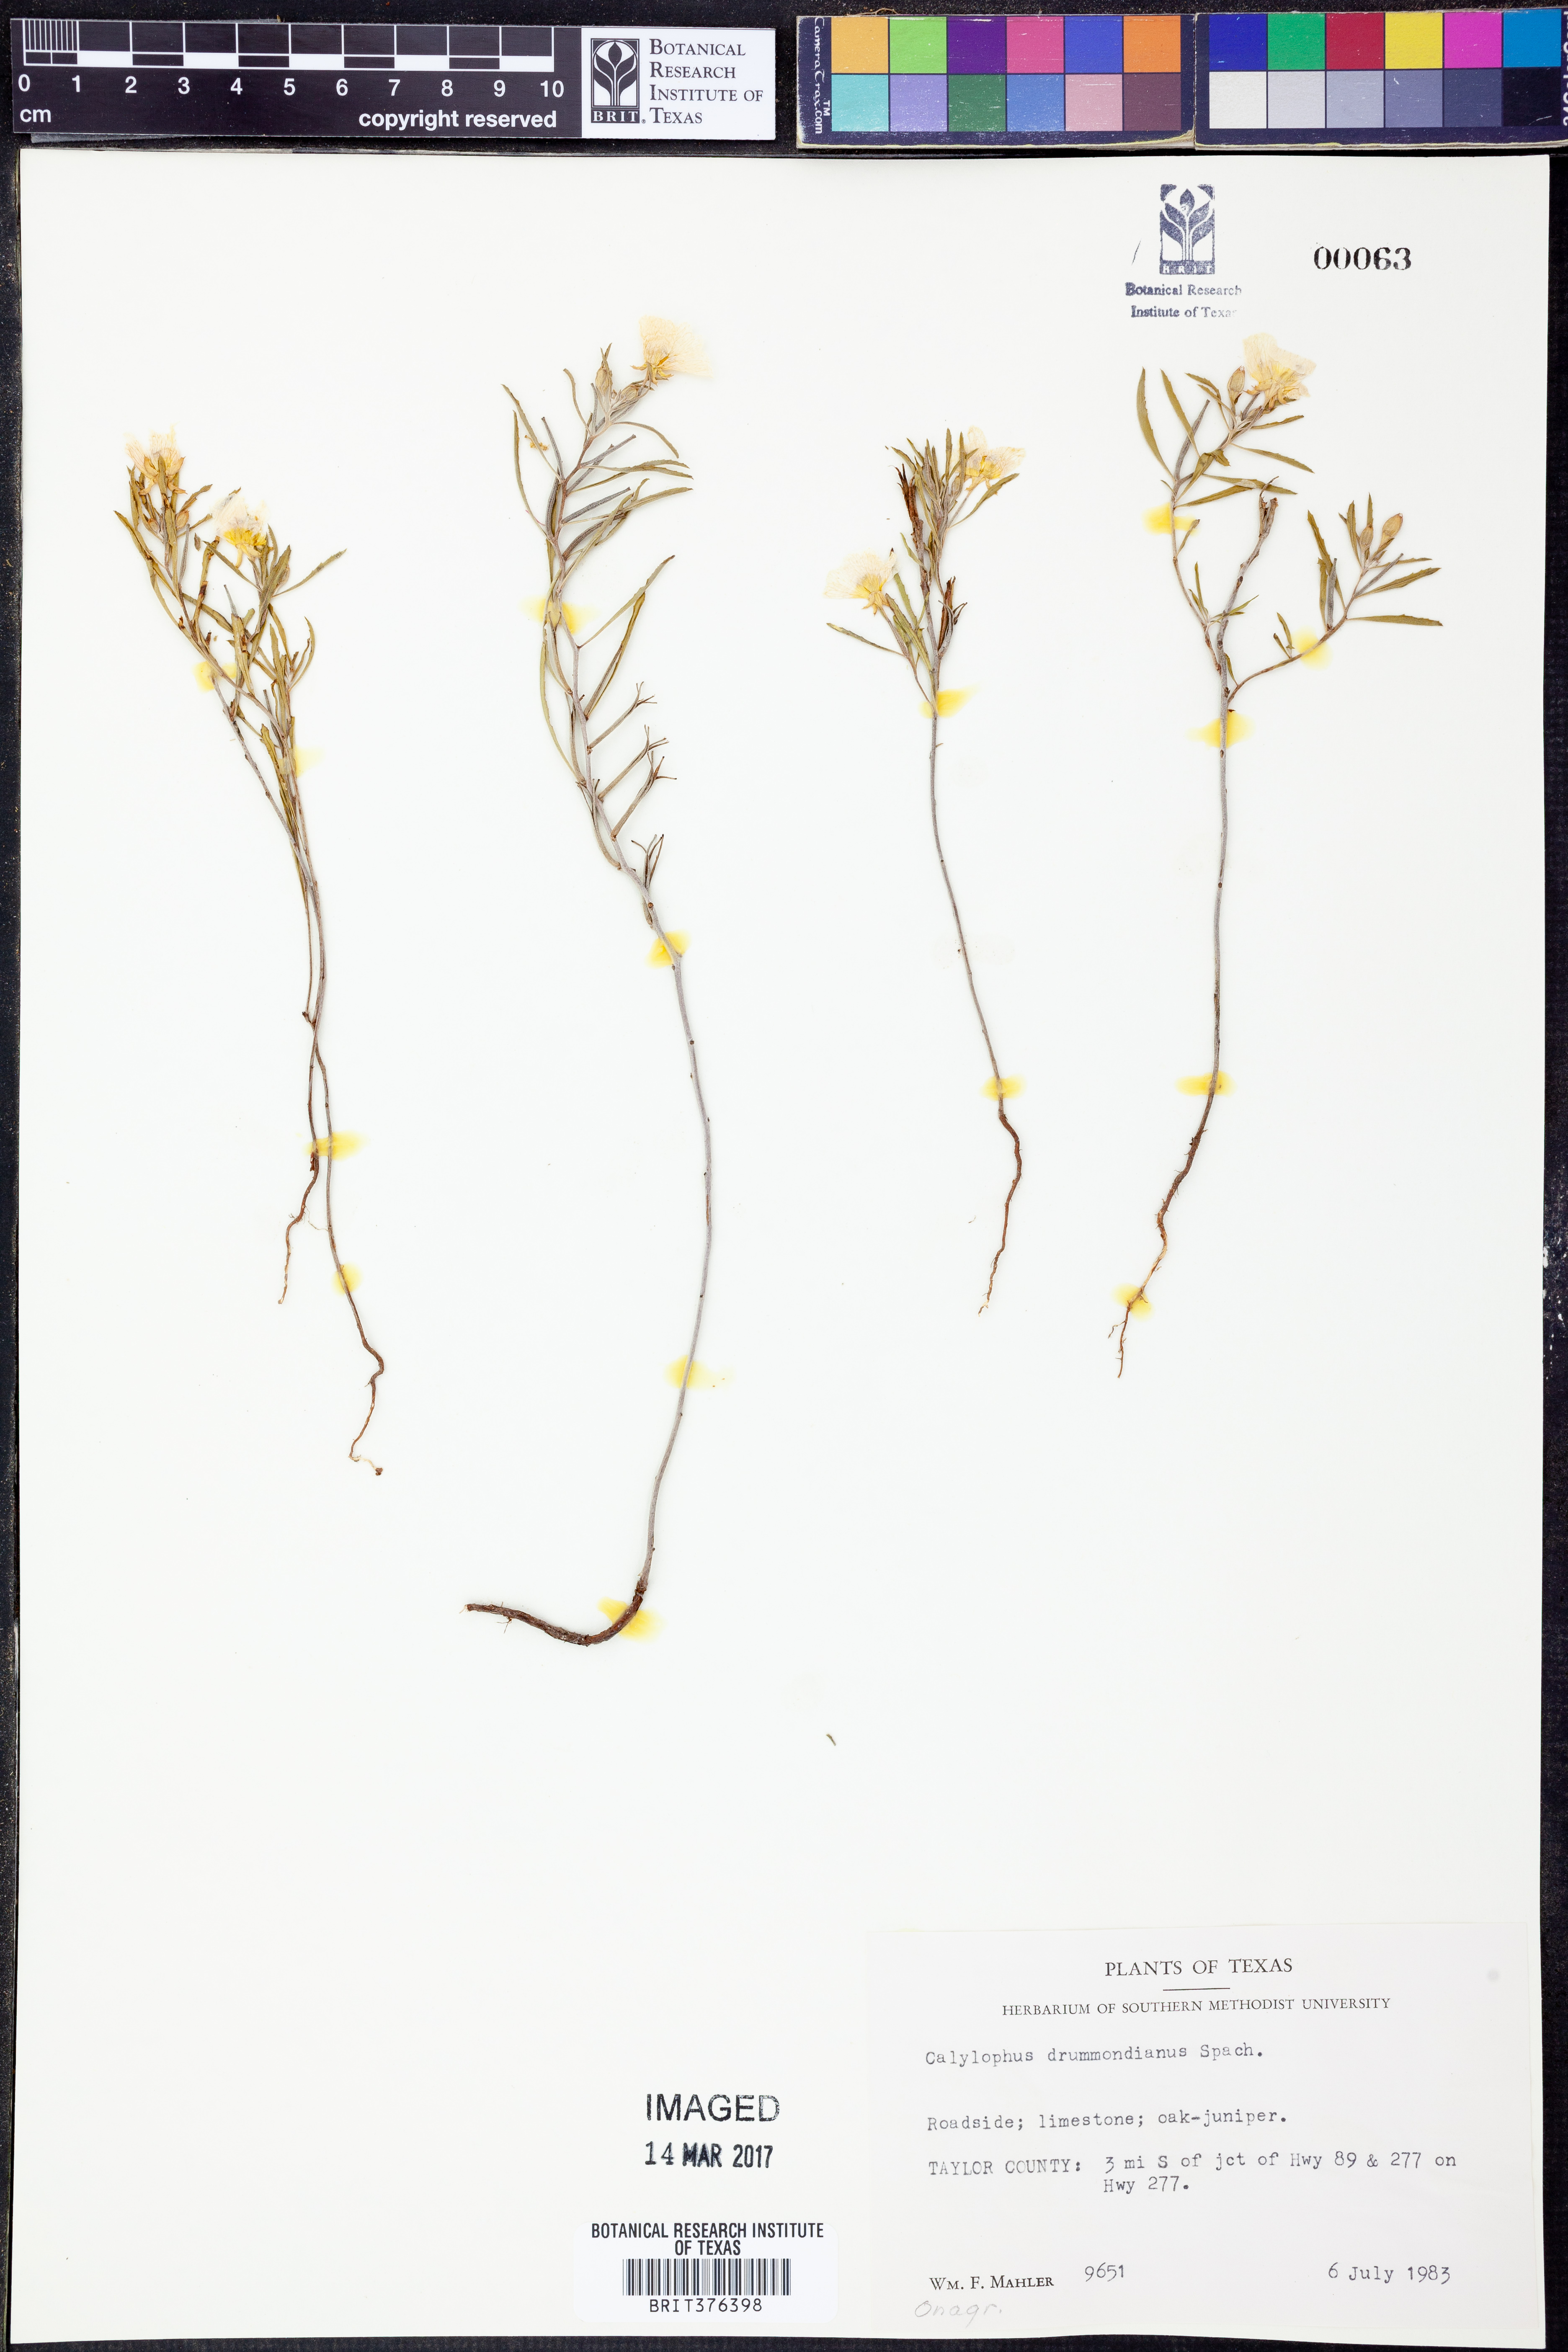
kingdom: Plantae
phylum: Tracheophyta
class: Magnoliopsida
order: Myrtales
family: Onagraceae
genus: Oenothera
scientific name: Oenothera serrulata
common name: Half-shrub calylophus
